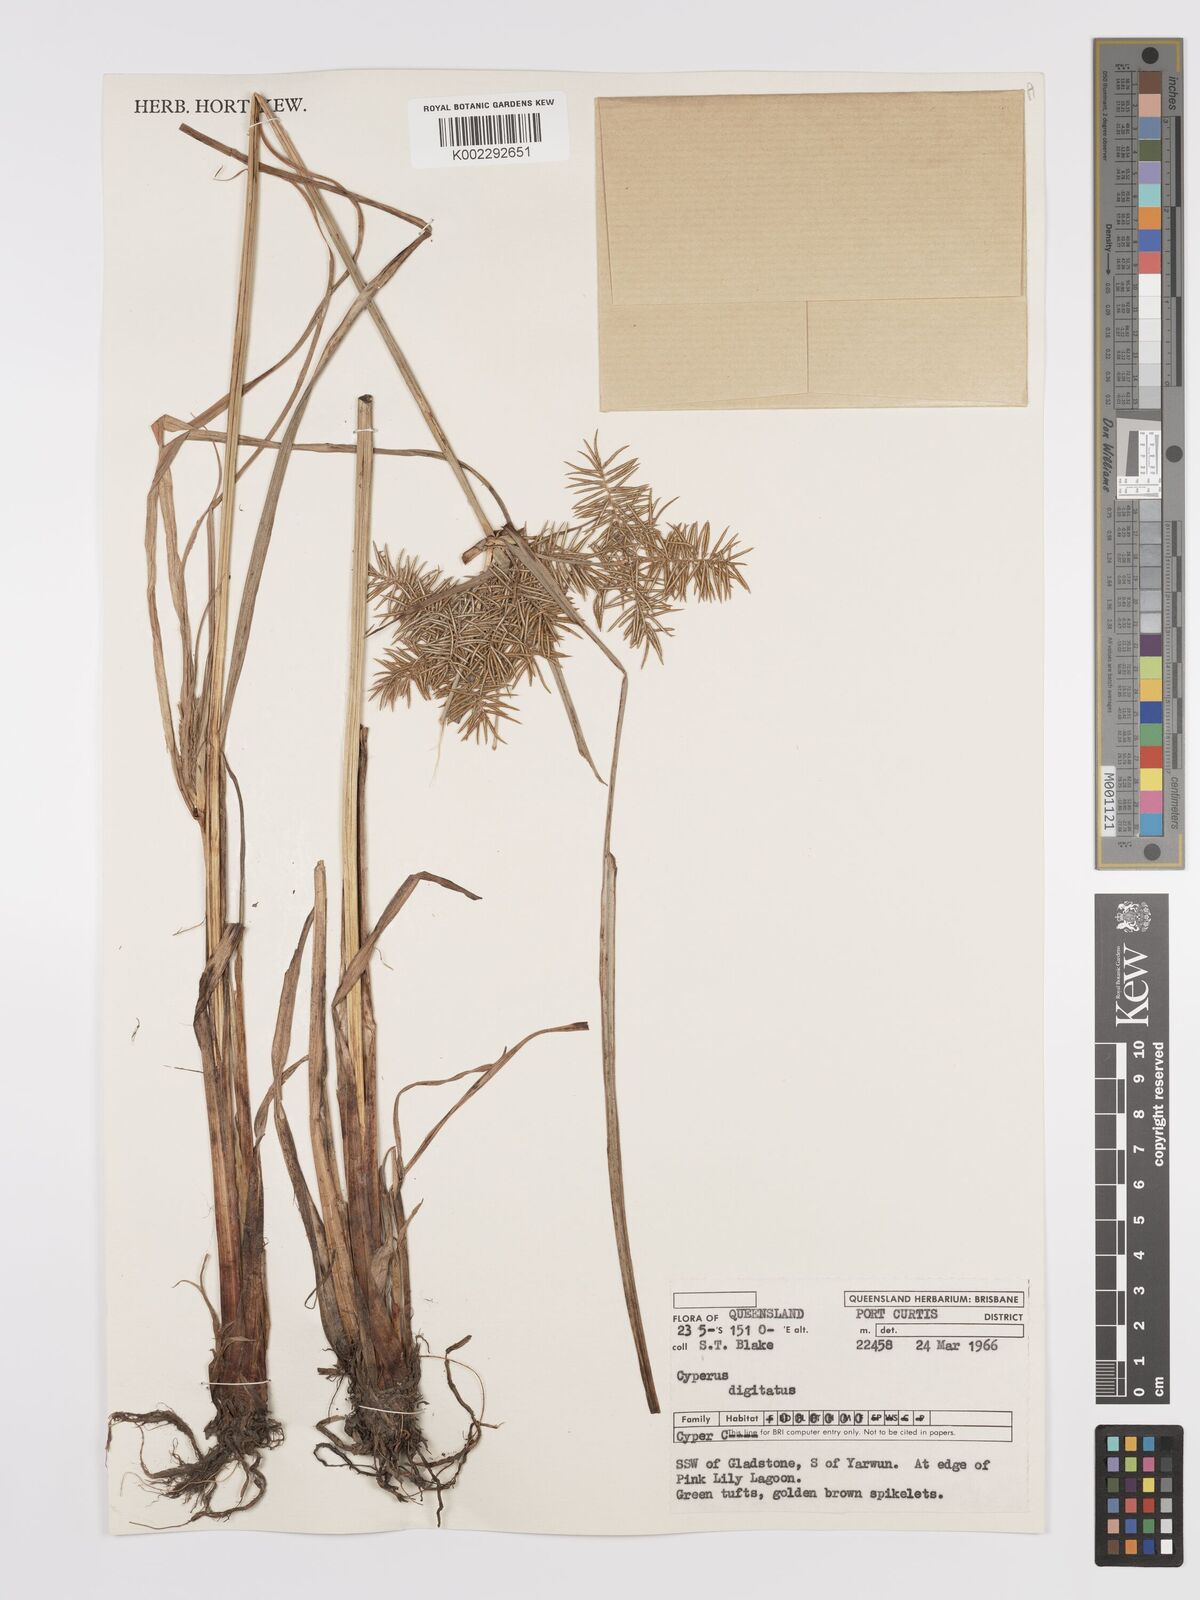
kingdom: Plantae
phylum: Tracheophyta
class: Liliopsida
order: Poales
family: Cyperaceae
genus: Cyperus
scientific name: Cyperus digitatus
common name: Finger flatsedge
